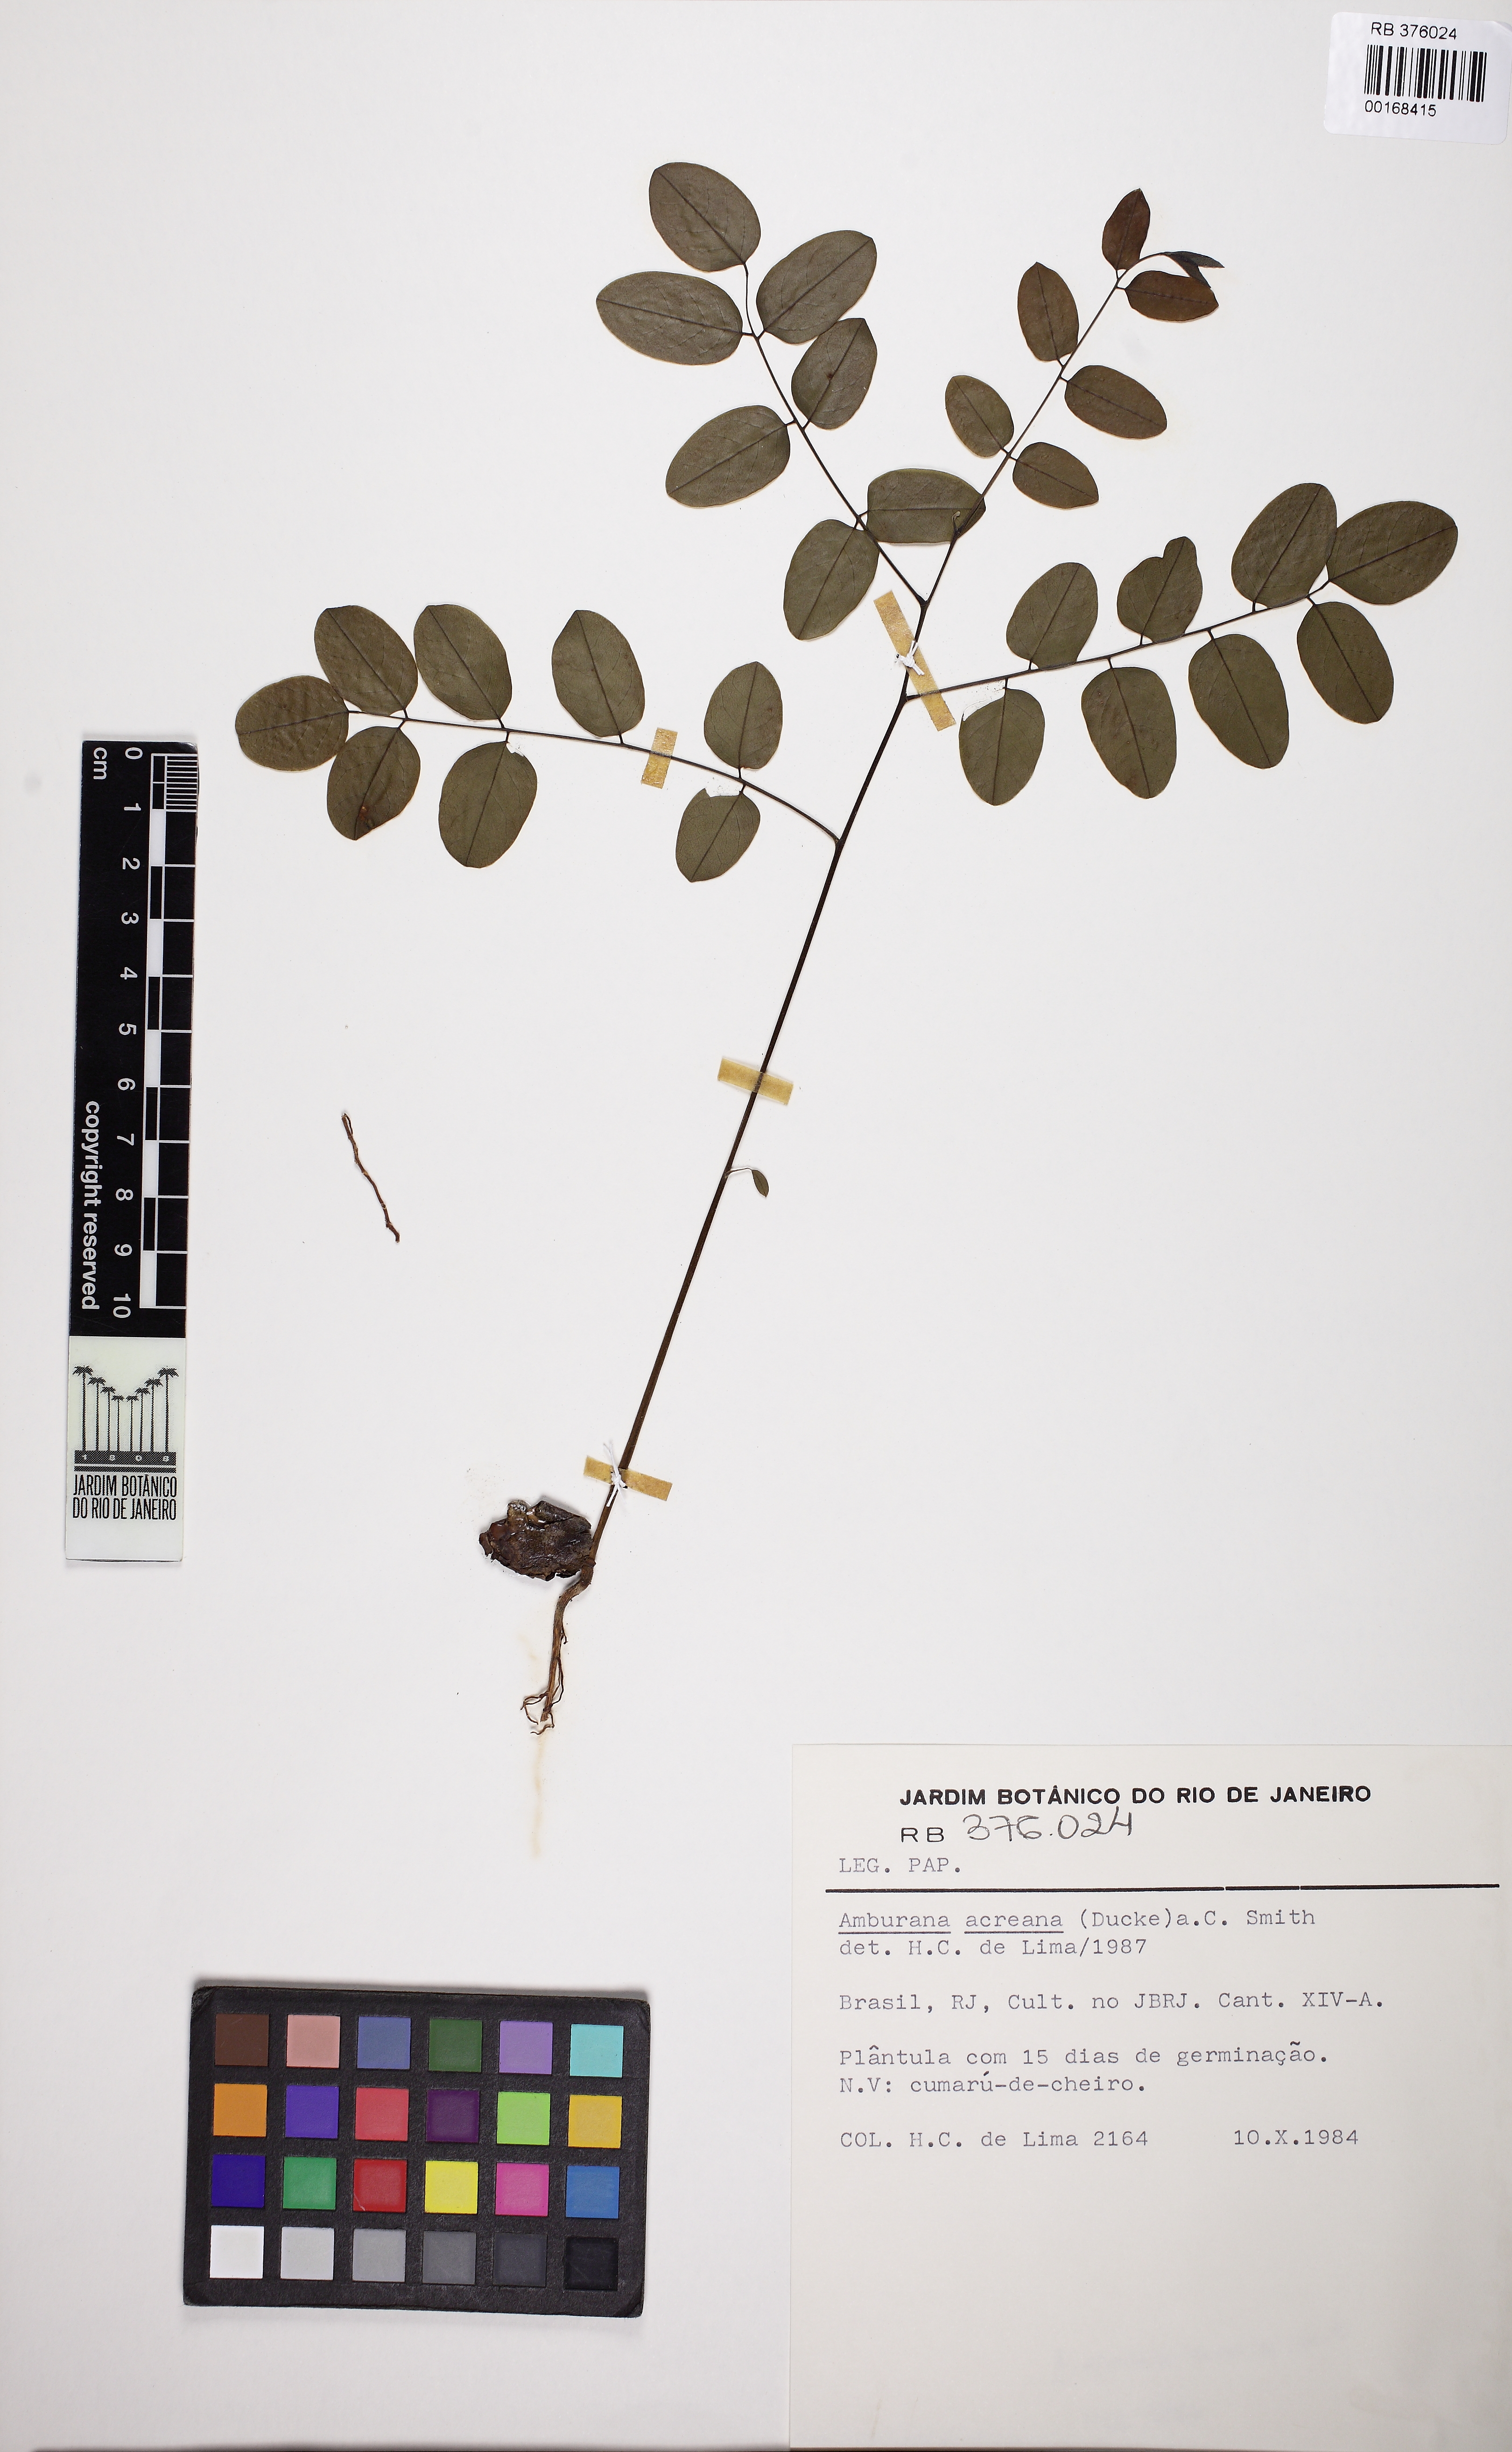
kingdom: Plantae
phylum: Tracheophyta
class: Magnoliopsida
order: Fabales
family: Fabaceae
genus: Amburana
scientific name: Amburana acreana
